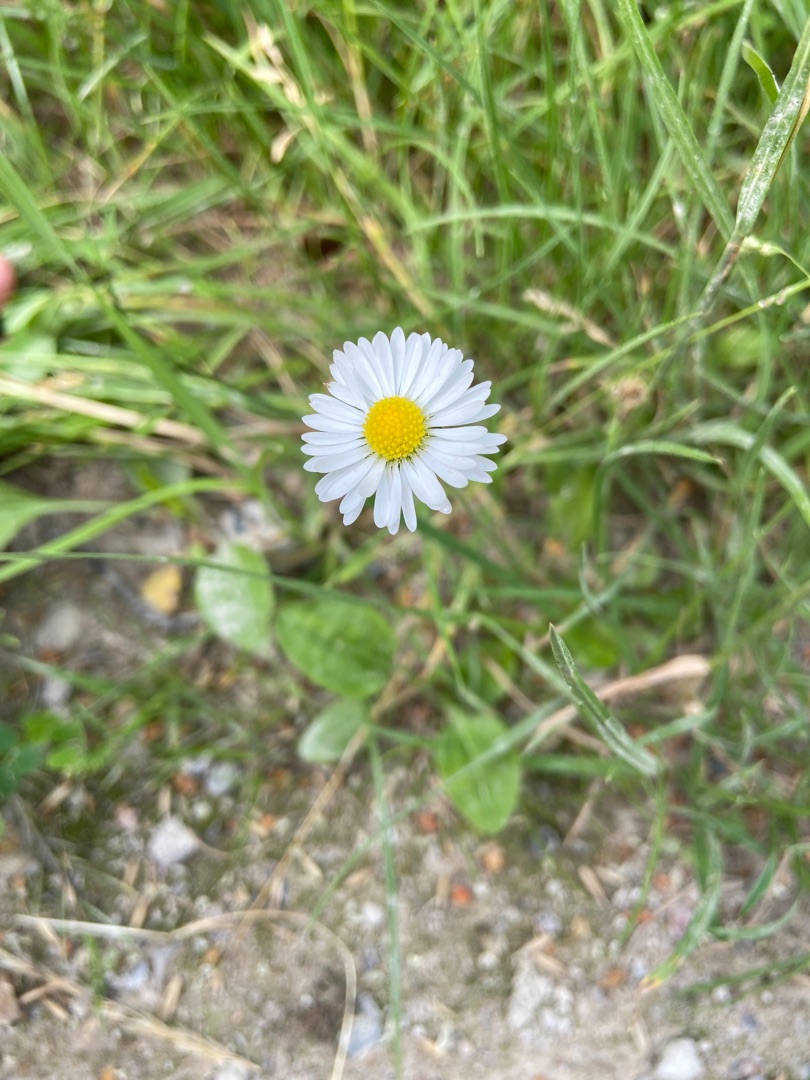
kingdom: Plantae
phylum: Tracheophyta
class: Magnoliopsida
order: Asterales
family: Asteraceae
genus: Bellis
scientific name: Bellis perennis
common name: Tusindfryd
